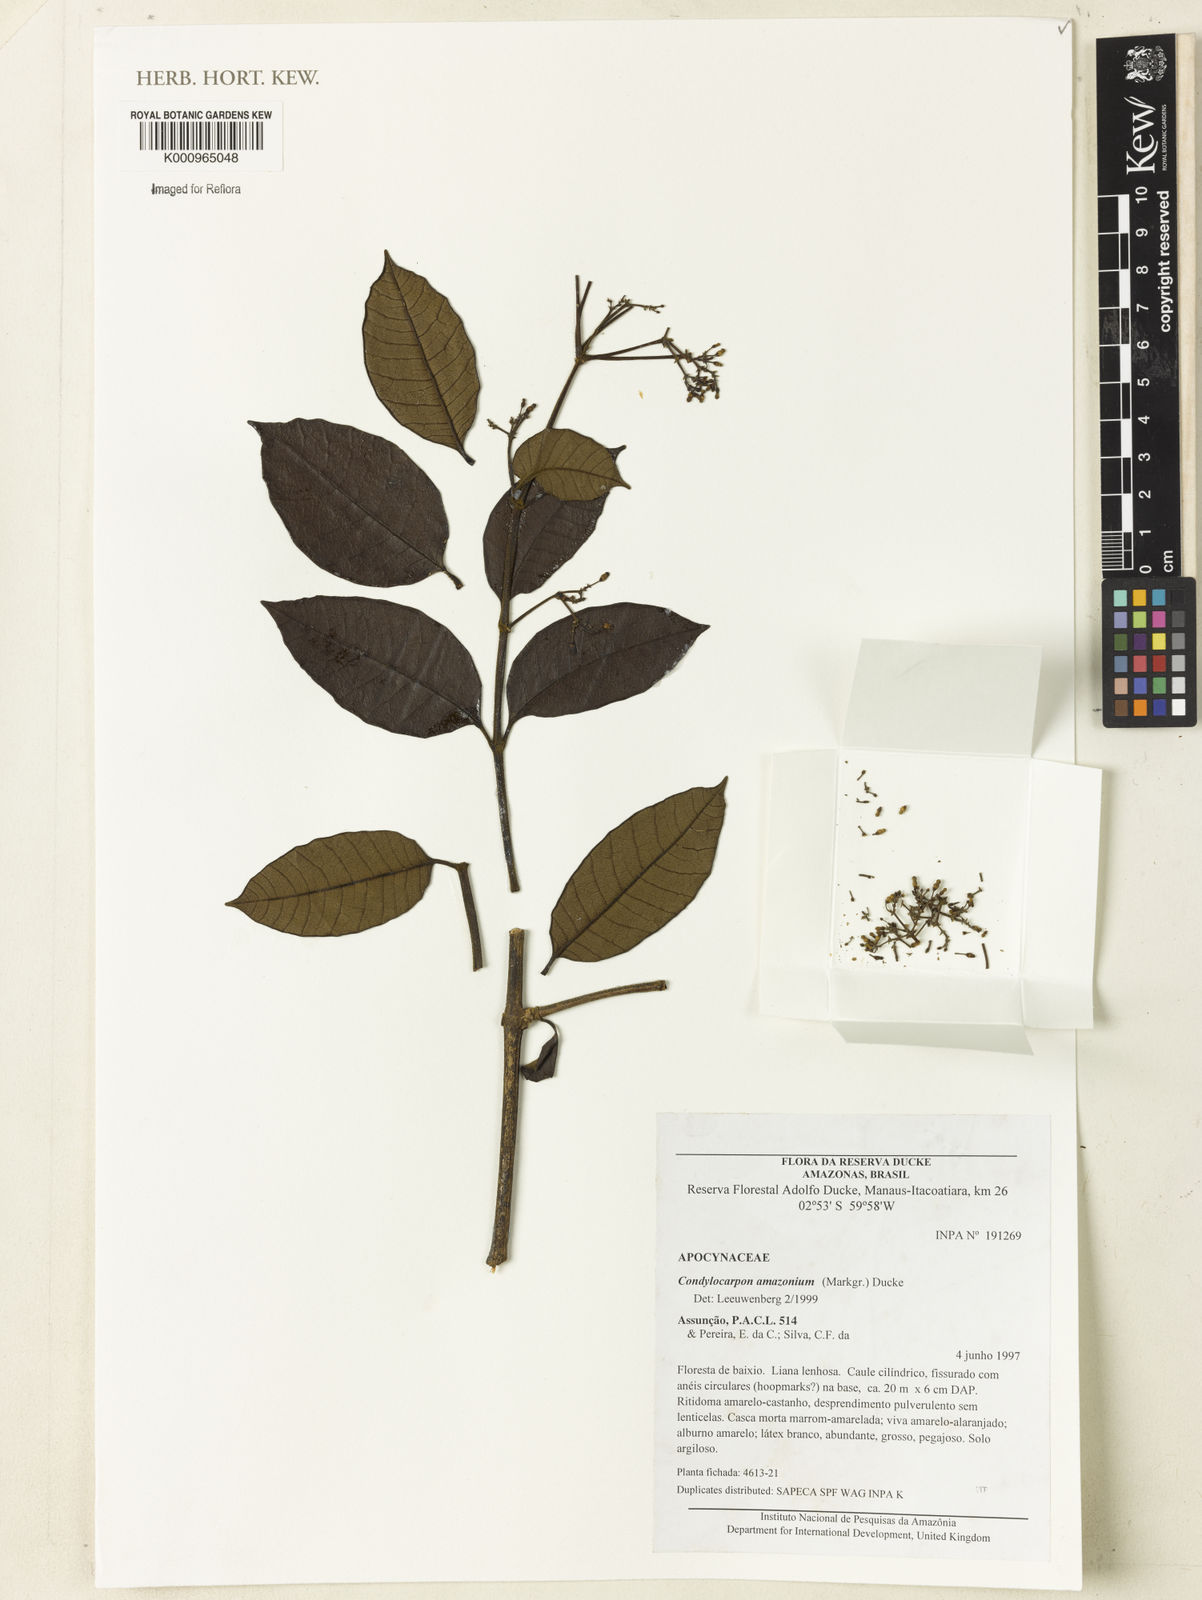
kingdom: Plantae
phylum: Tracheophyta
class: Magnoliopsida
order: Gentianales
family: Apocynaceae
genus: Condylocarpon
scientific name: Condylocarpon amazonicum
